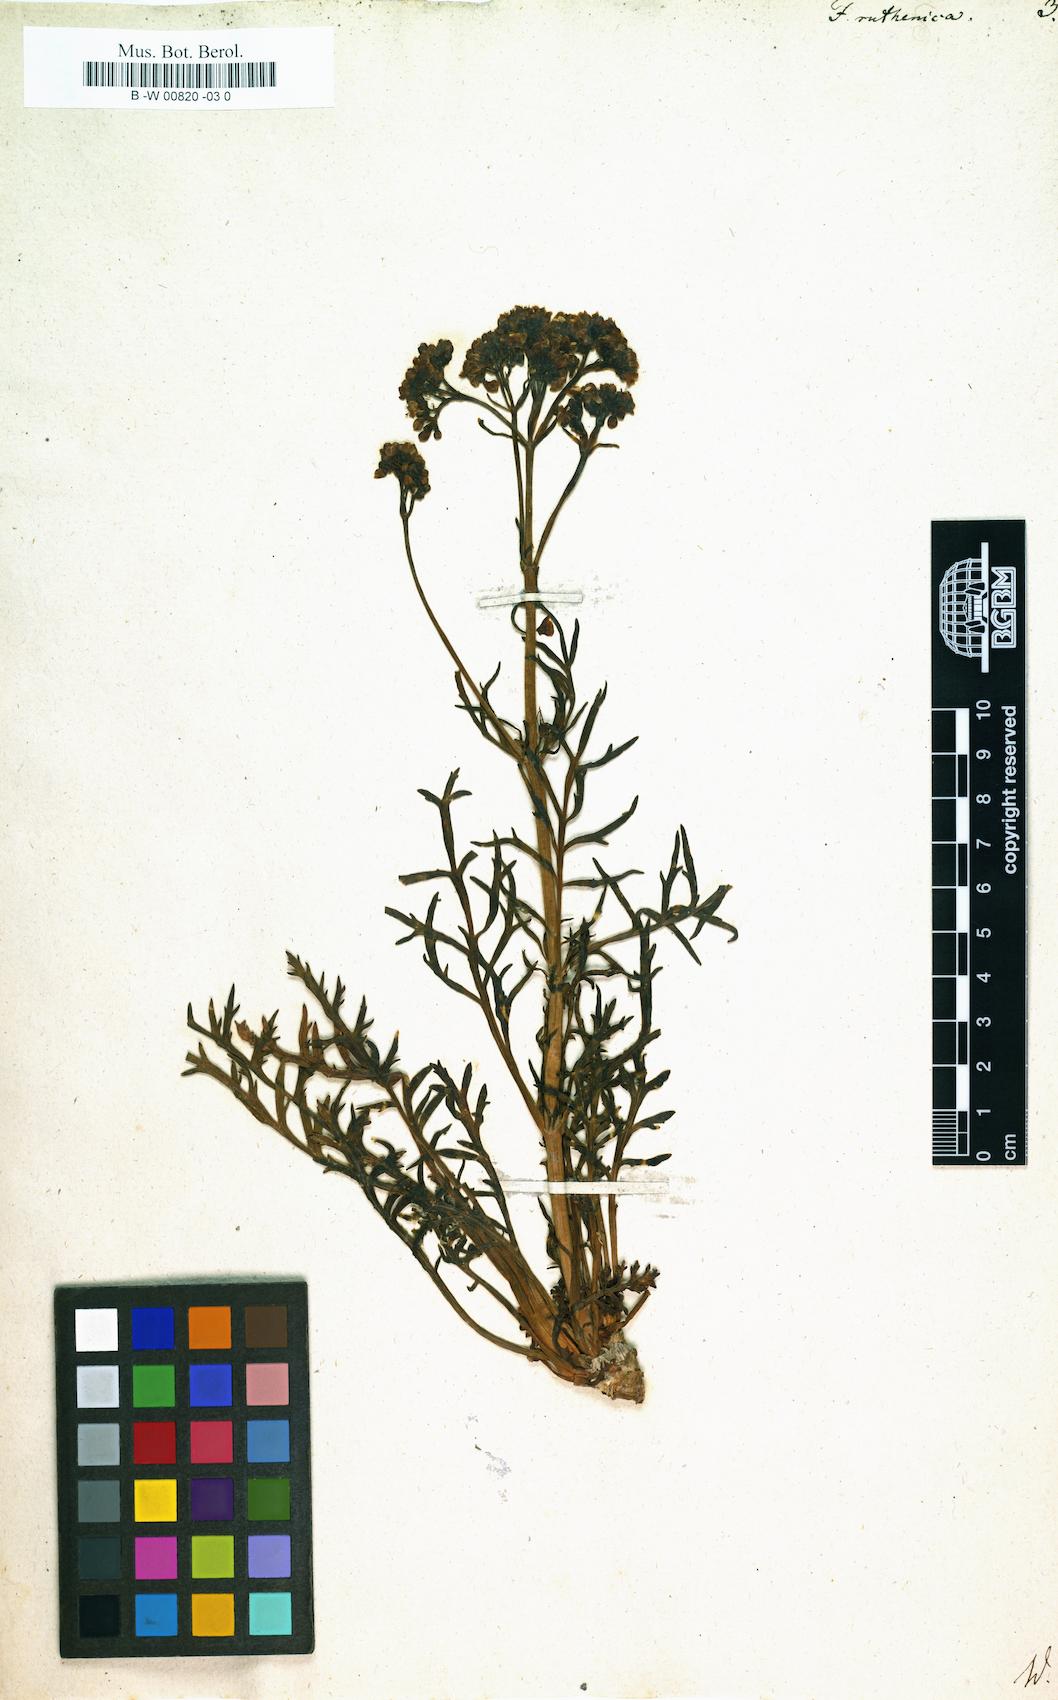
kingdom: Plantae
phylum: Tracheophyta
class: Magnoliopsida
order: Dipsacales
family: Caprifoliaceae
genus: Patrinia
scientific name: Patrinia intermedia
